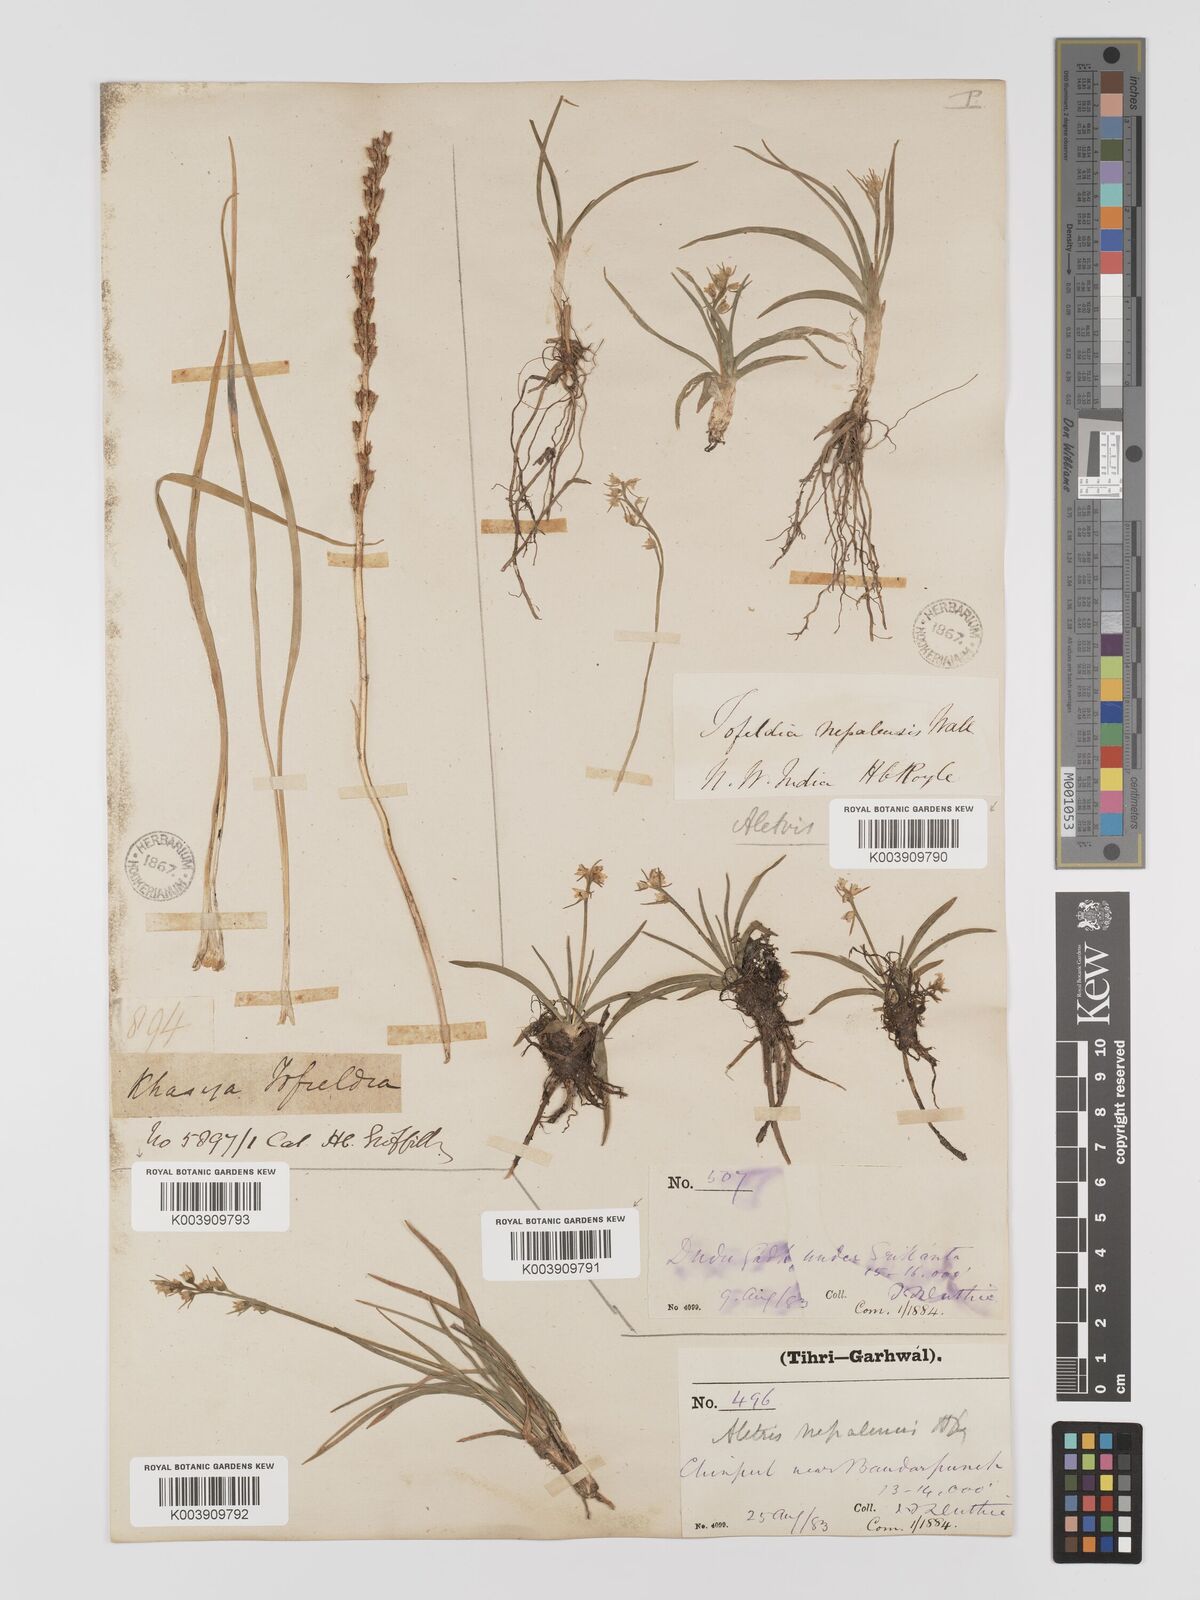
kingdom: Plantae
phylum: Tracheophyta
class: Liliopsida
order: Dioscoreales
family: Nartheciaceae
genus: Aletris
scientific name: Aletris pauciflora
